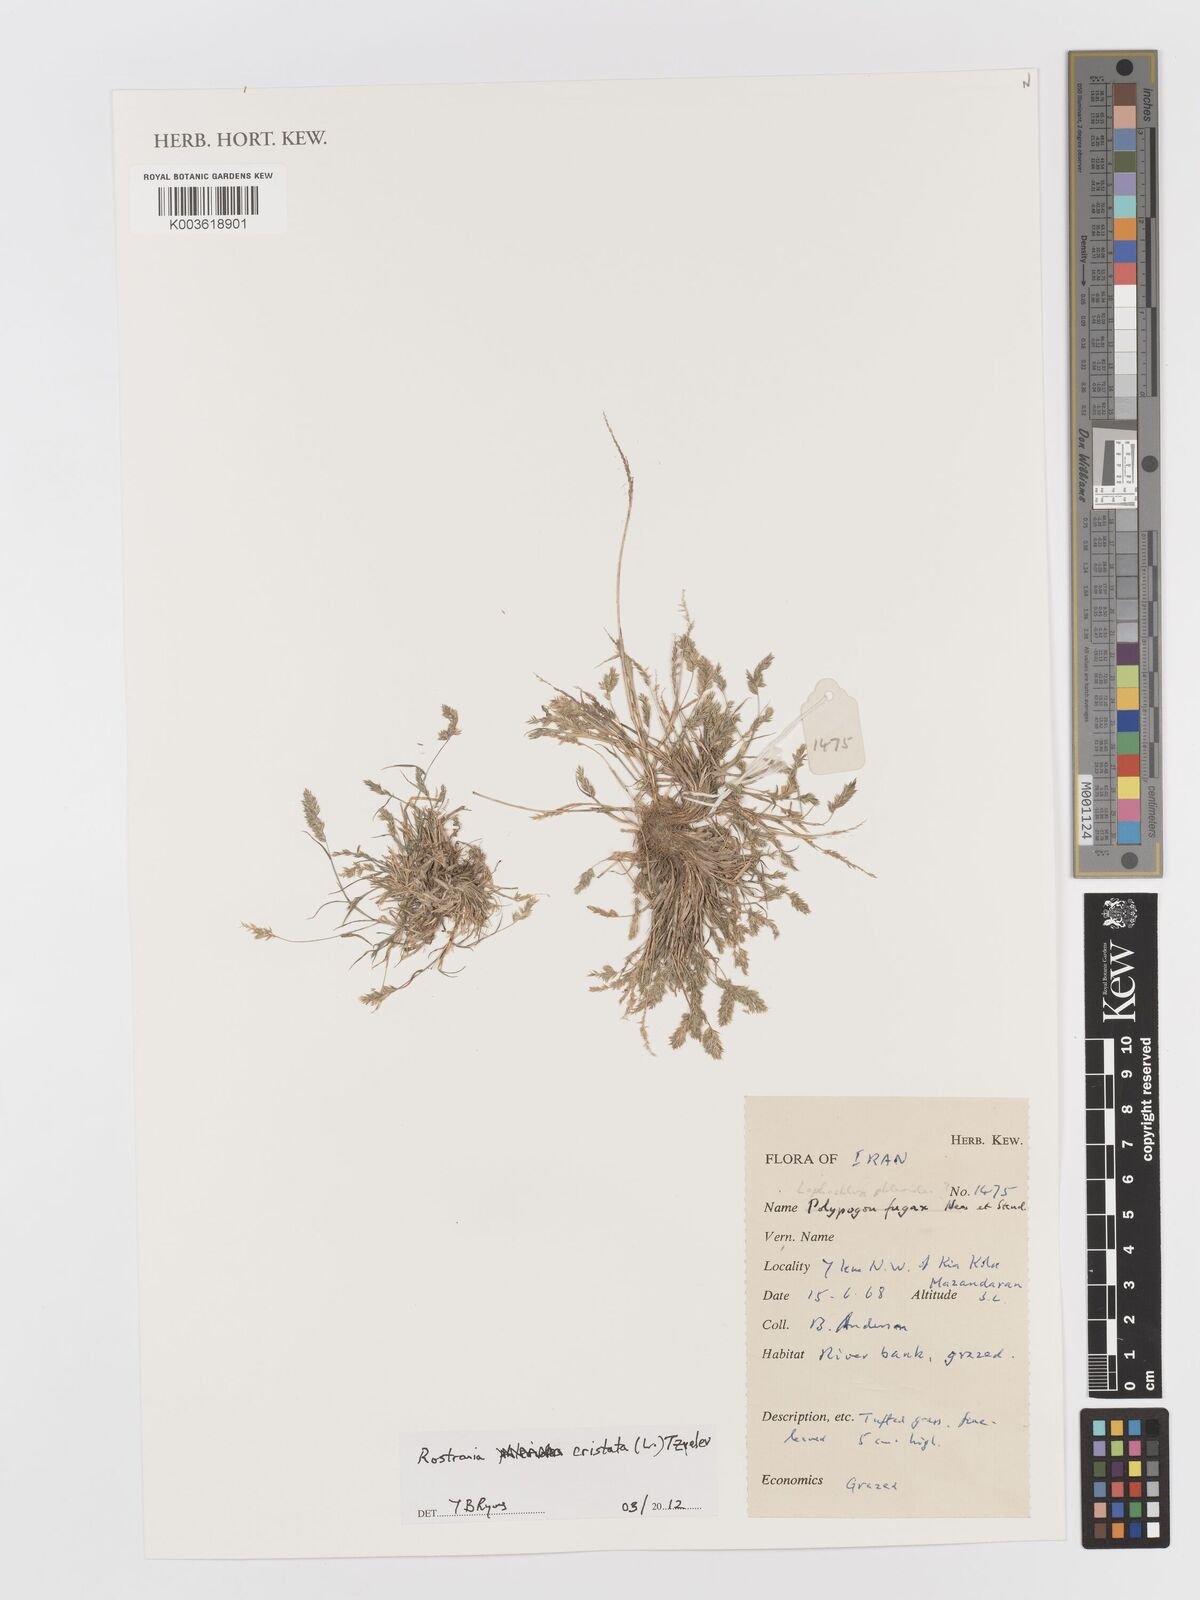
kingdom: Plantae
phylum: Tracheophyta
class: Liliopsida
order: Poales
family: Poaceae
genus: Rostraria
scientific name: Rostraria cristata
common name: Mediterranean hair-grass
